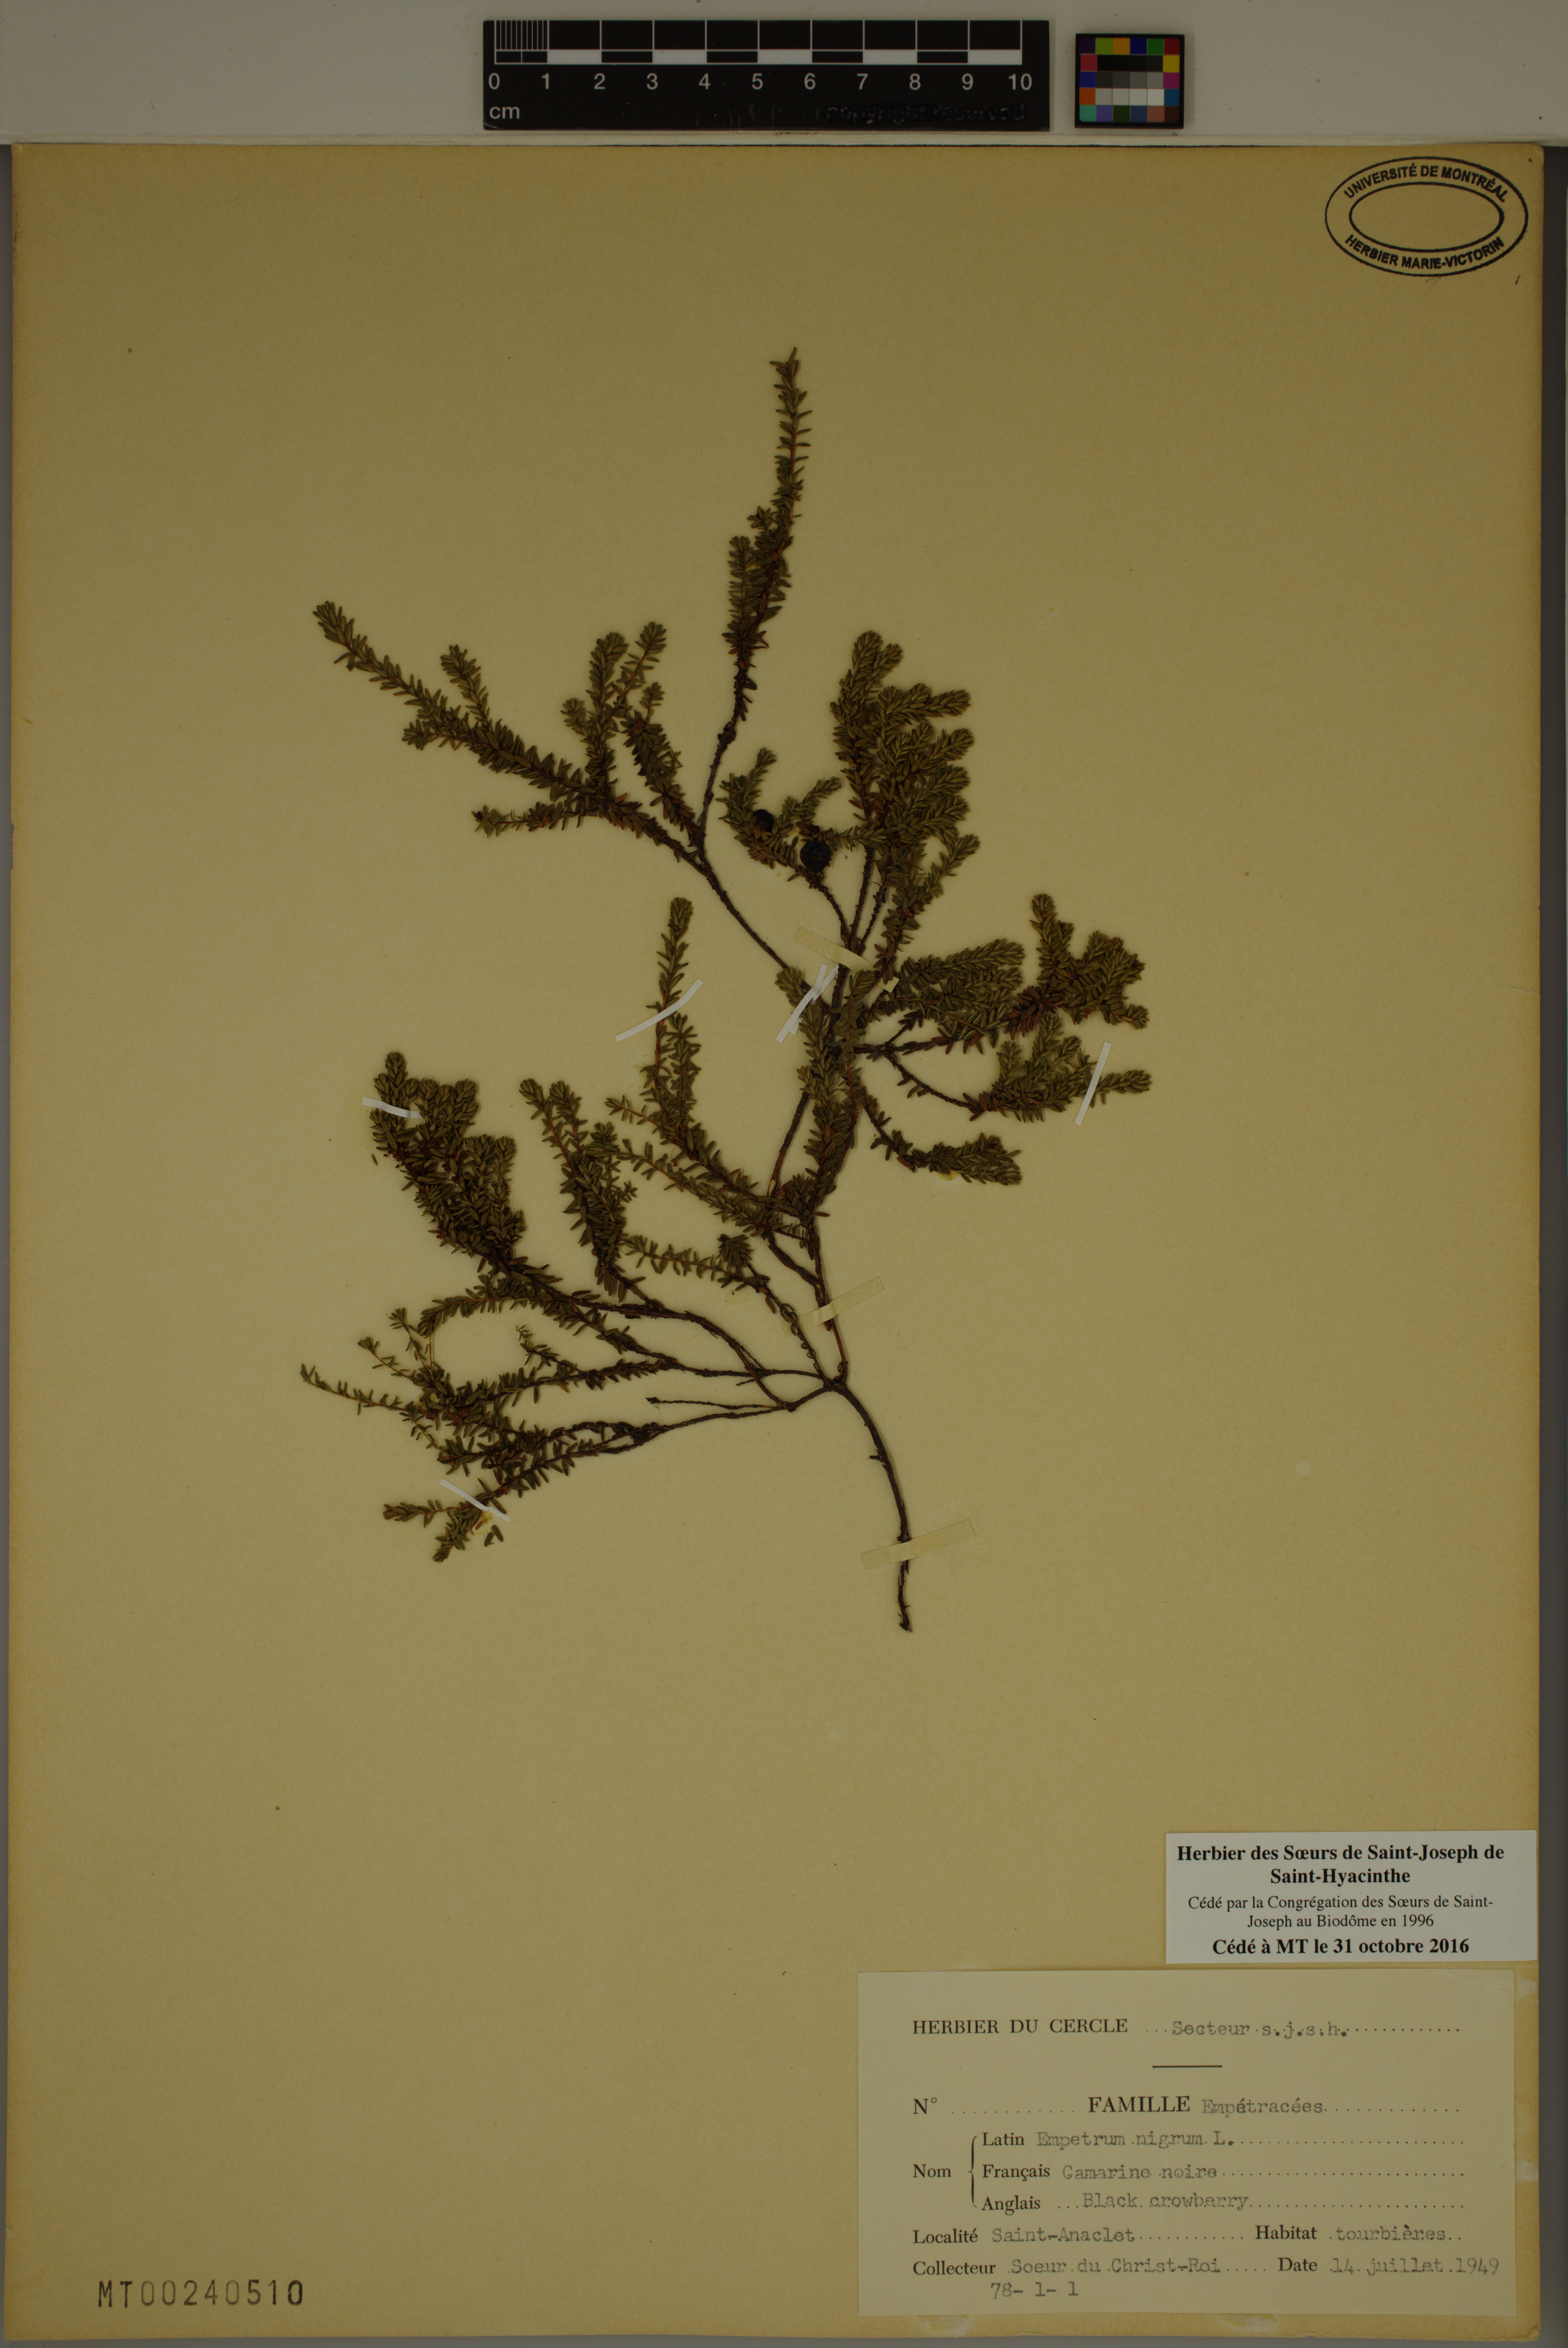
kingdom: Plantae
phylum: Tracheophyta
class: Magnoliopsida
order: Ericales
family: Ericaceae
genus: Empetrum
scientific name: Empetrum nigrum
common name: Black crowberry
